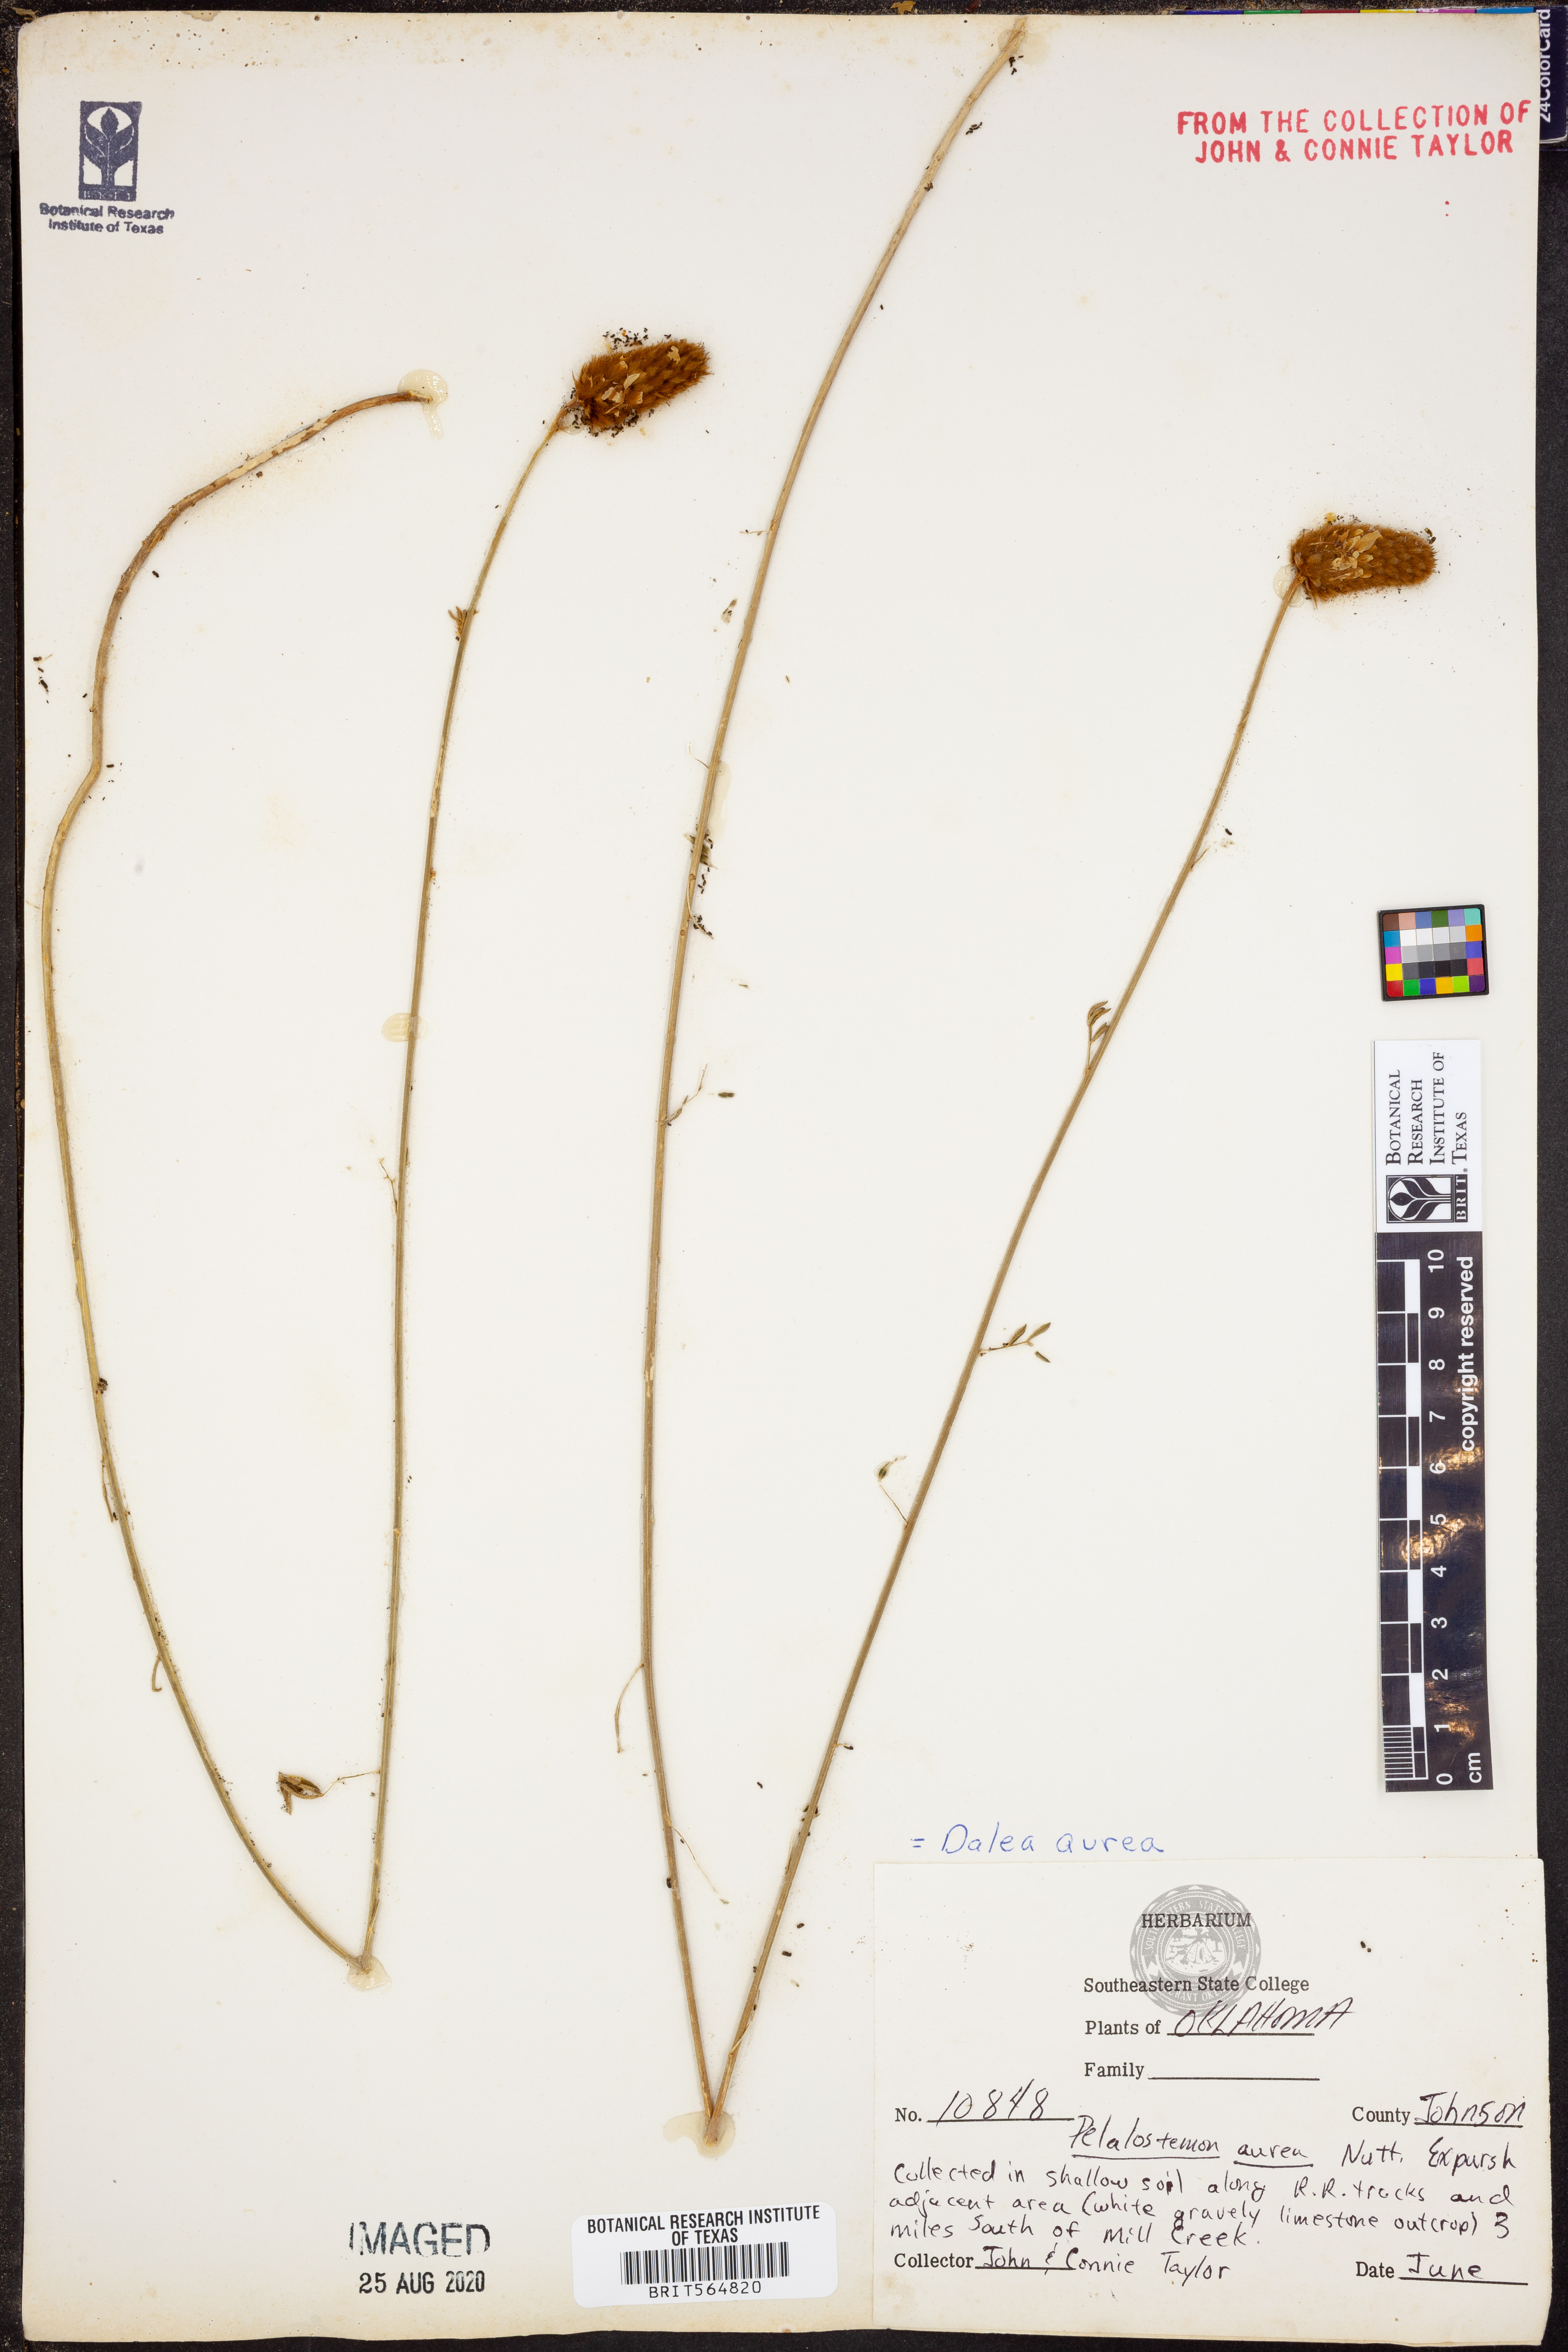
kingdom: Plantae
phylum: Tracheophyta
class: Magnoliopsida
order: Fabales
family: Fabaceae
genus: Dalea
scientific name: Dalea aurea
